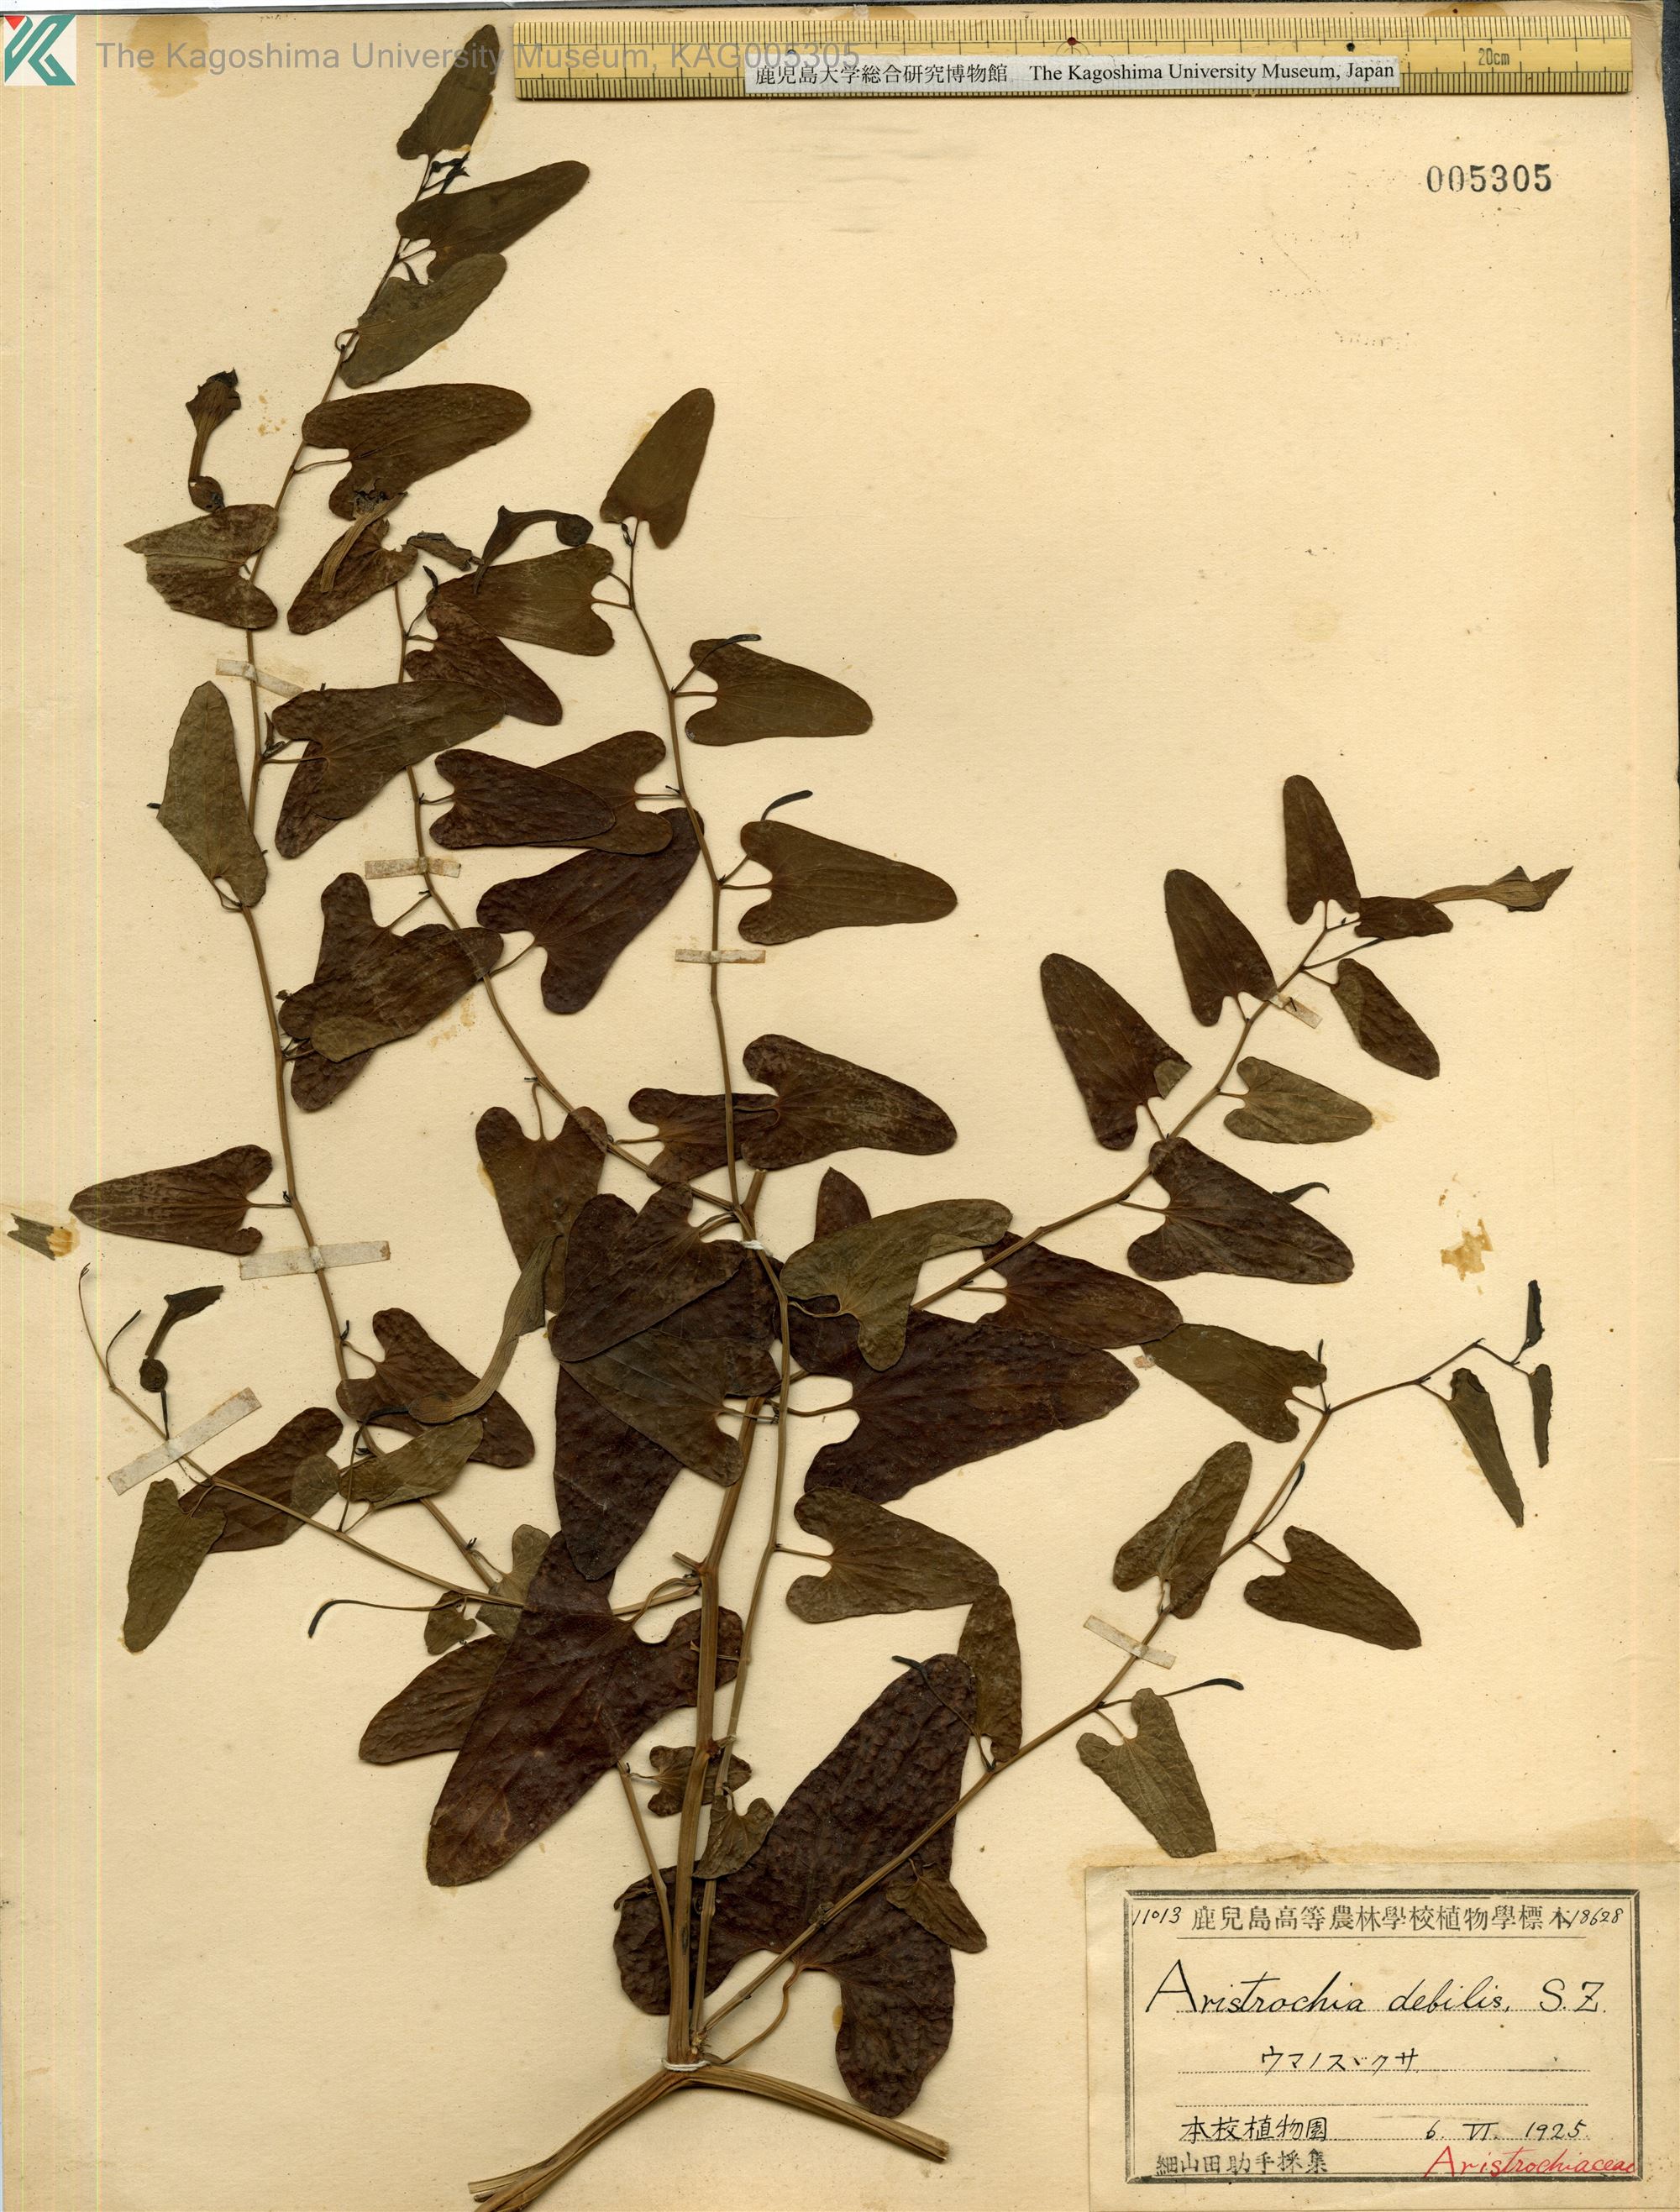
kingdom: Plantae
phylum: Tracheophyta
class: Magnoliopsida
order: Piperales
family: Aristolochiaceae
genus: Aristolochia
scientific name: Aristolochia debilis
